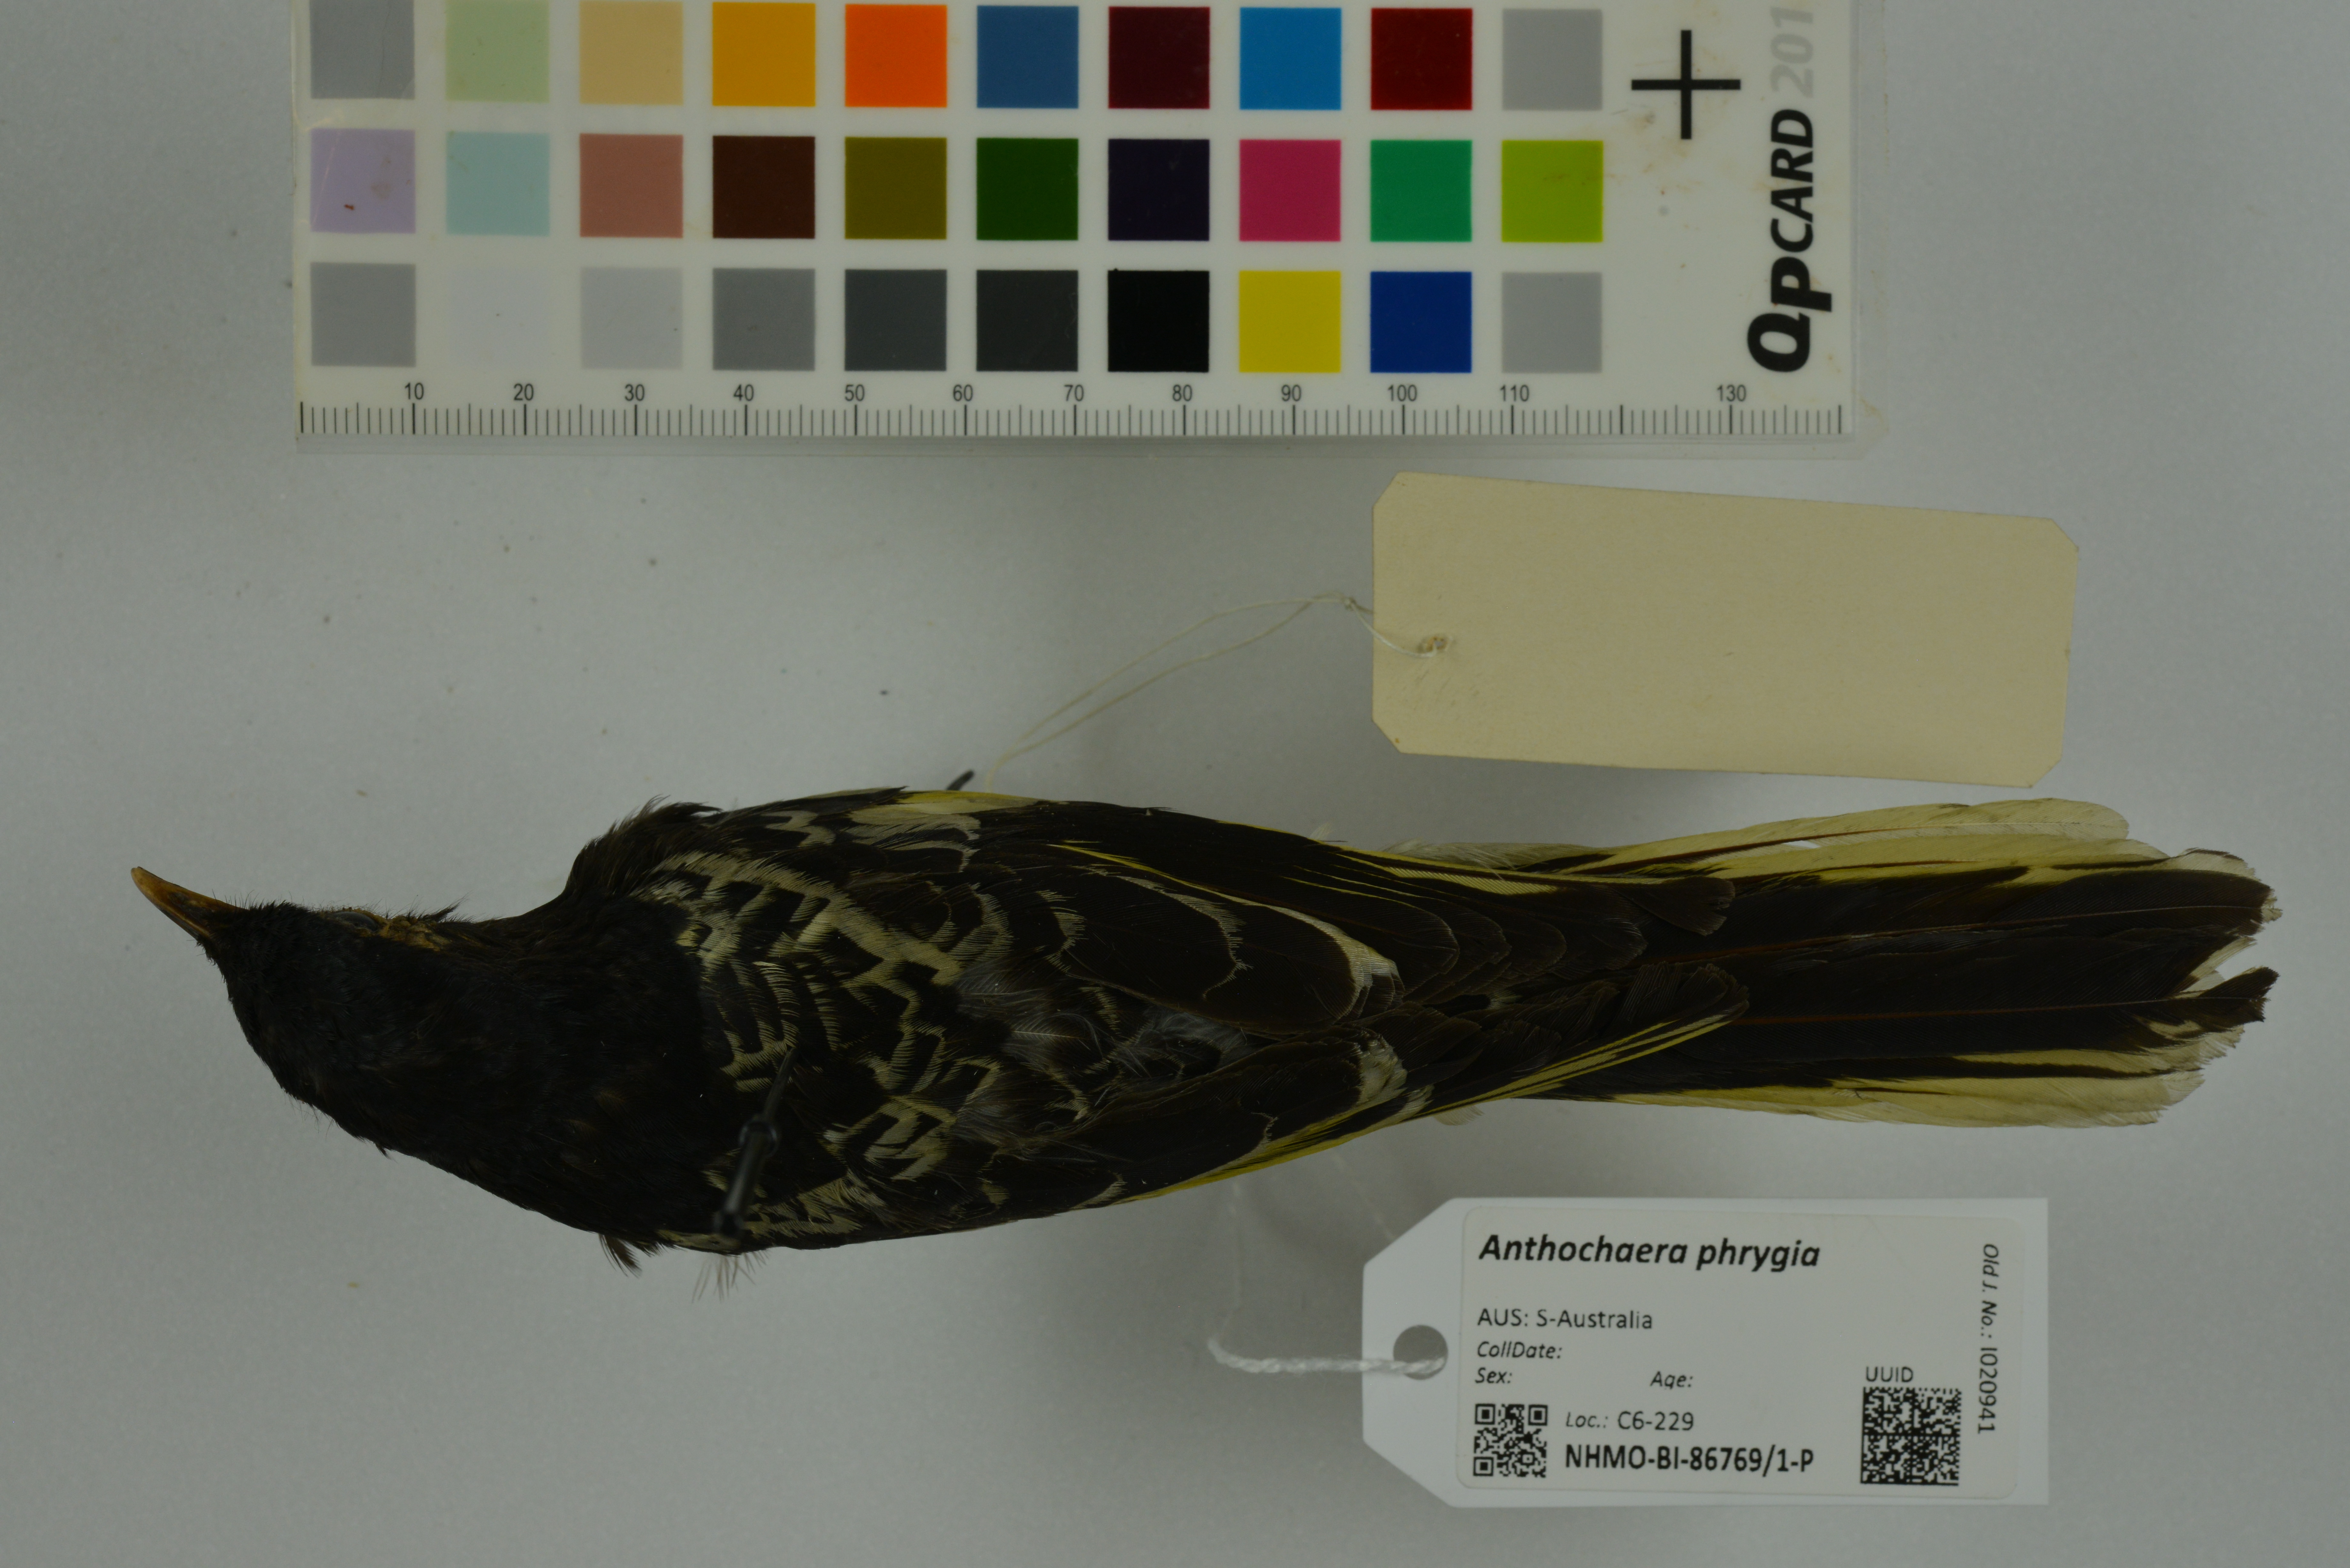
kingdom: Animalia
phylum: Chordata
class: Aves
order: Passeriformes
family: Meliphagidae
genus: Anthochaera
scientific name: Anthochaera phrygia
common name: Regent honeyeater
